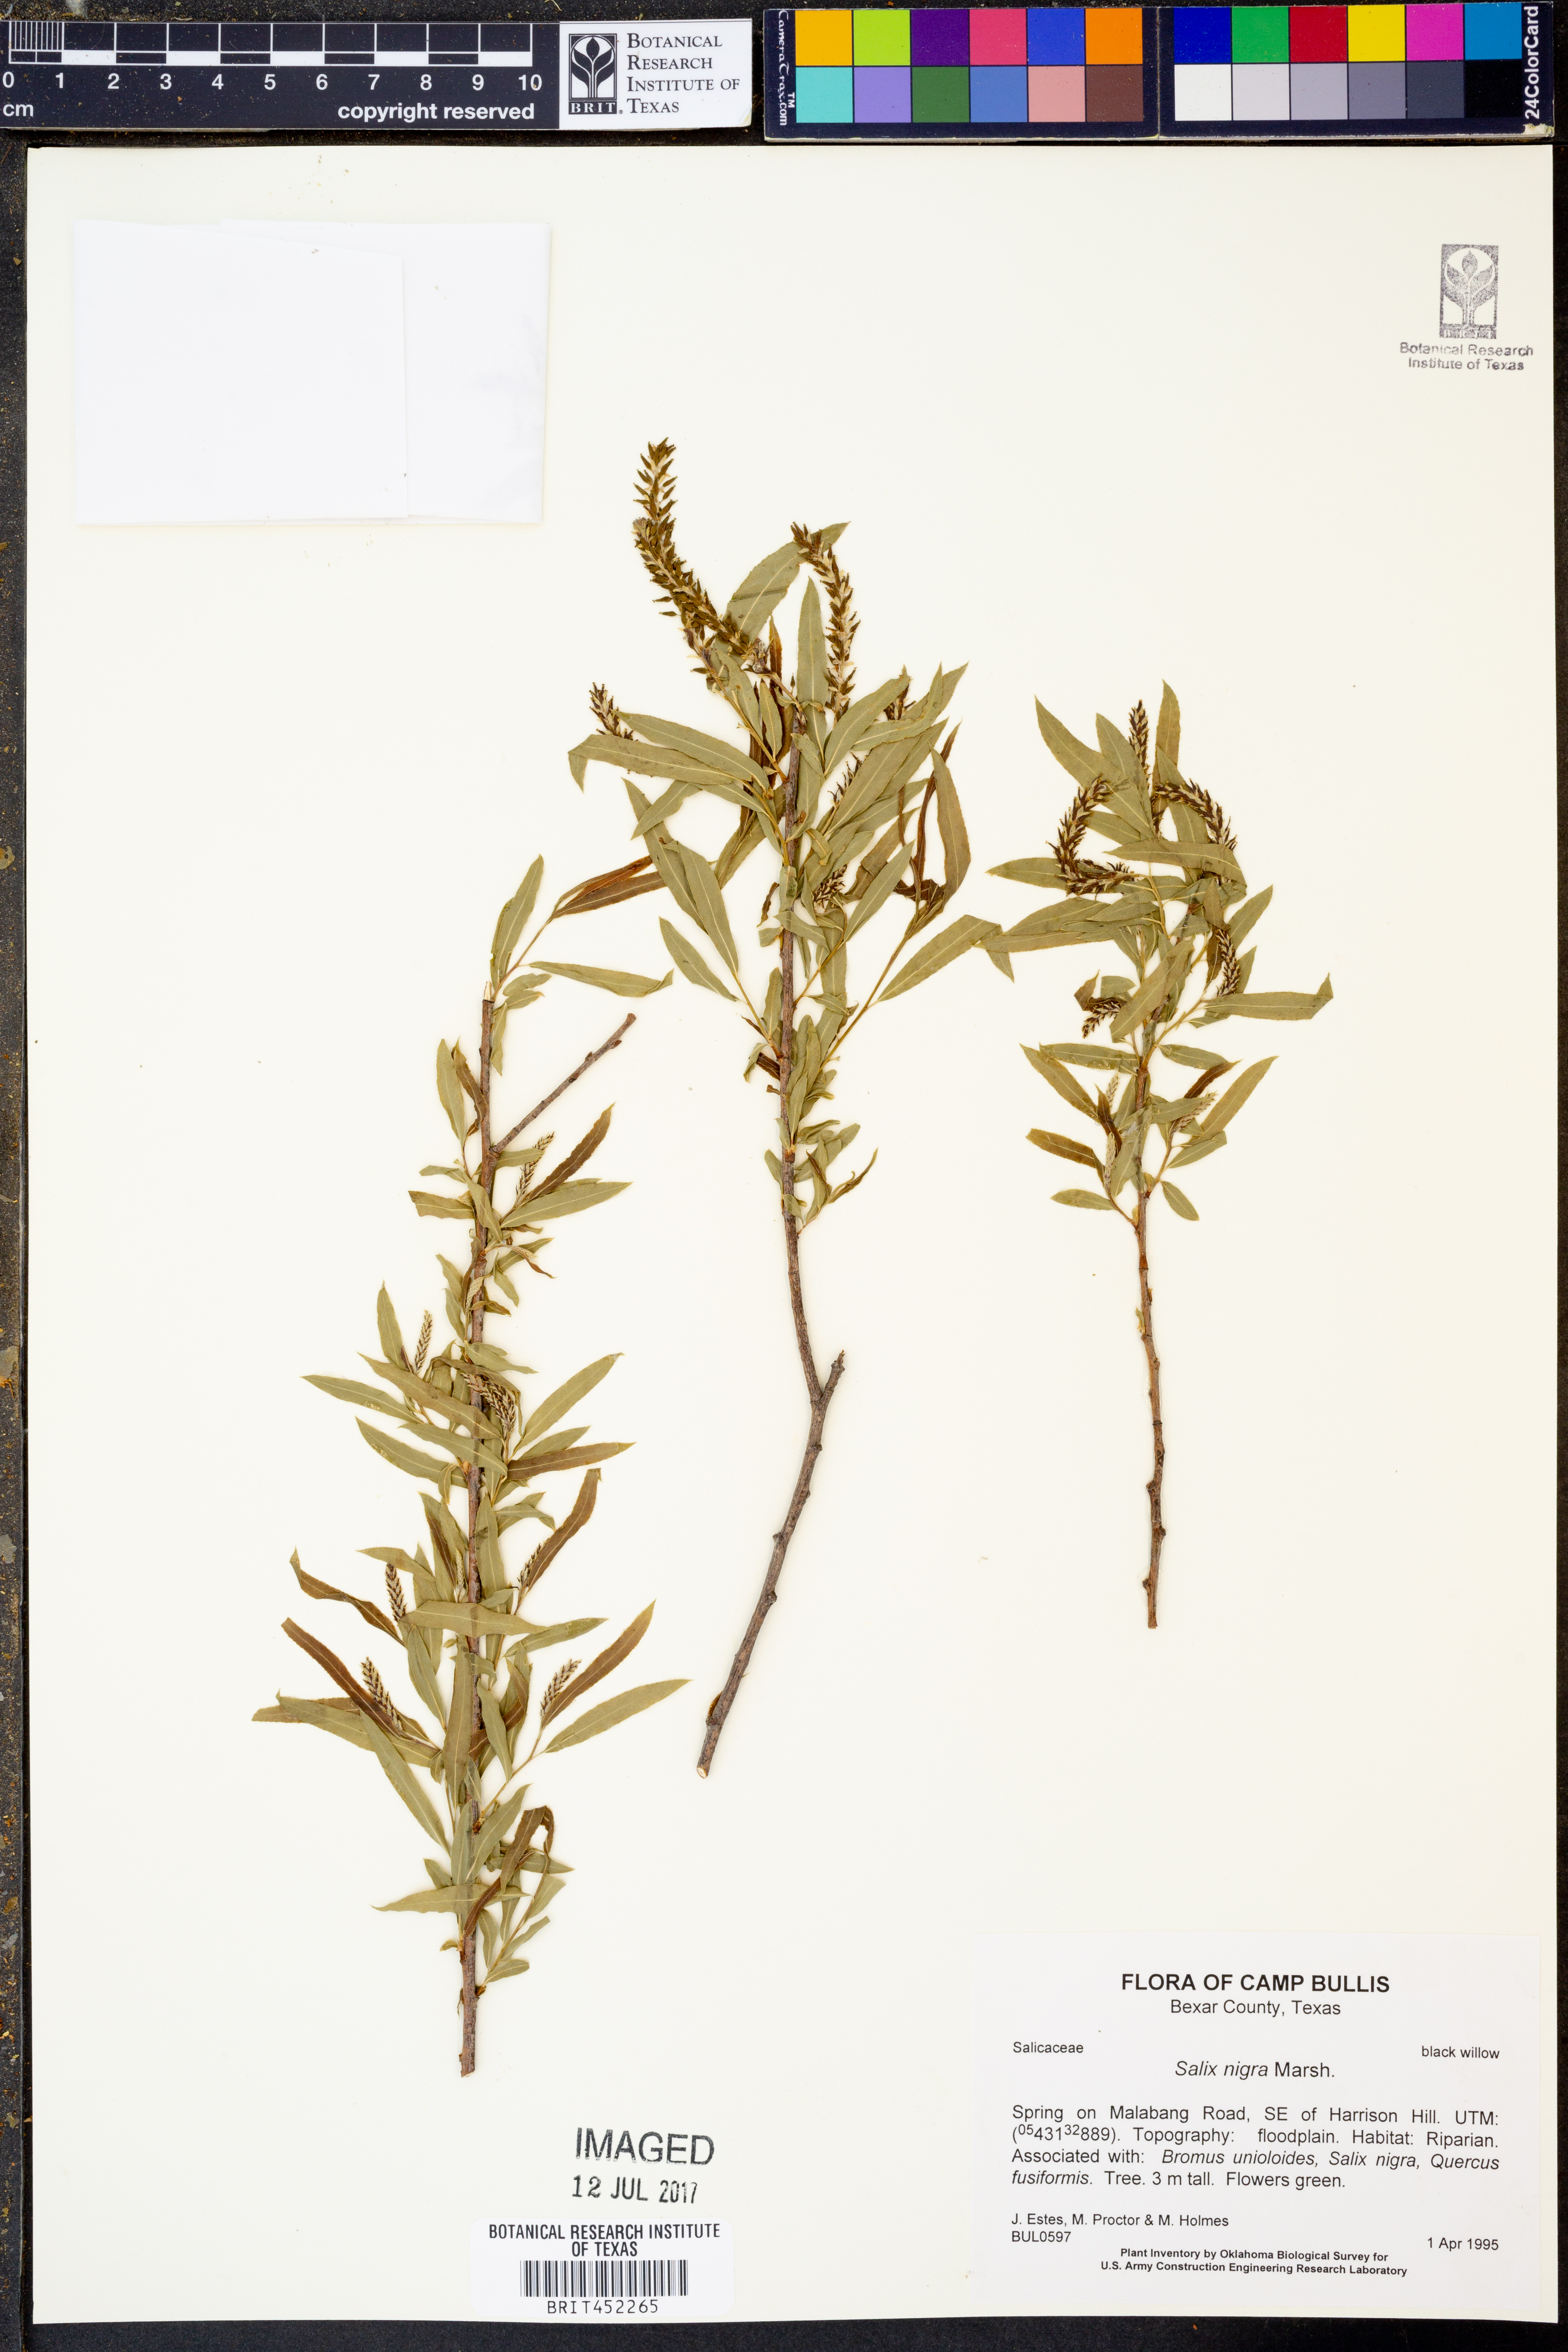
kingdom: Plantae
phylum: Tracheophyta
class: Magnoliopsida
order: Malpighiales
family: Salicaceae
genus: Salix
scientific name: Salix nigra
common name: Black willow
